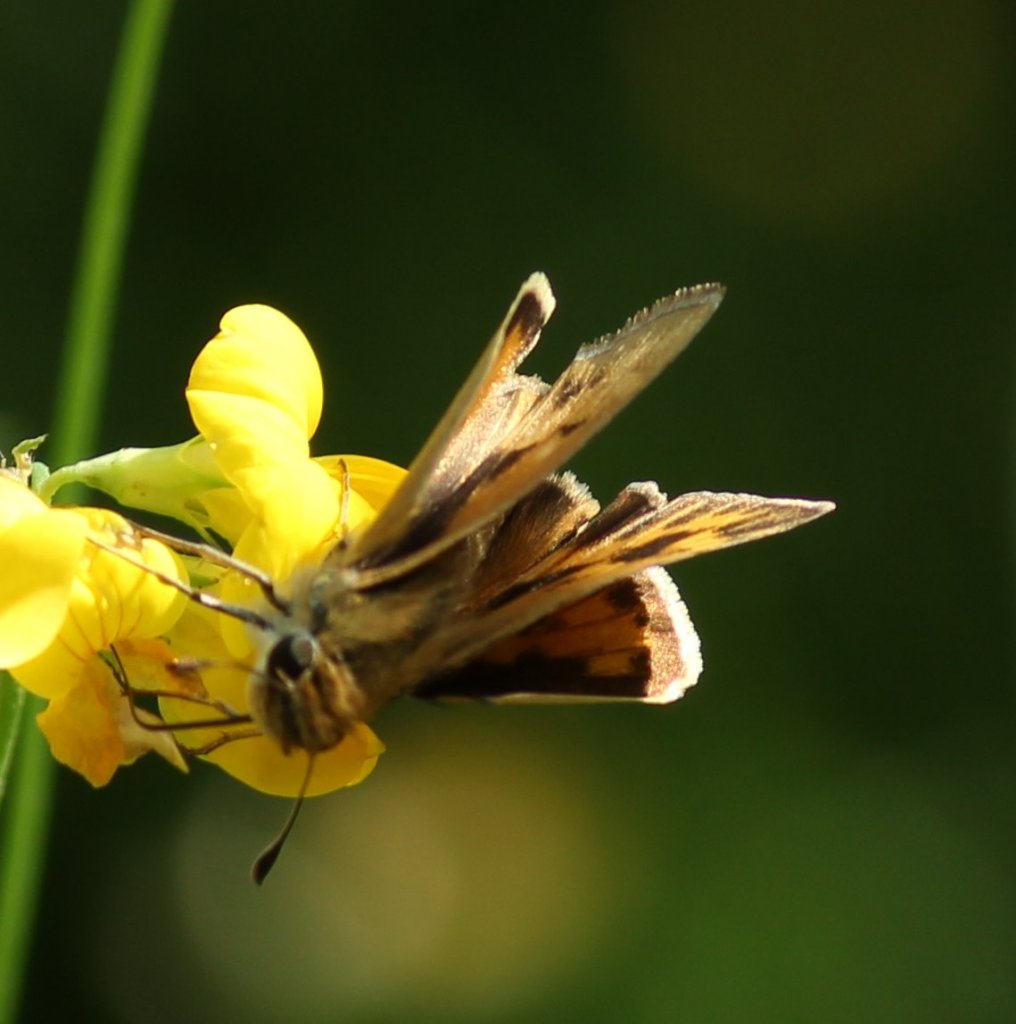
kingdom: Animalia
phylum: Arthropoda
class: Insecta
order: Lepidoptera
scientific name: Lepidoptera
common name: Butterflies
